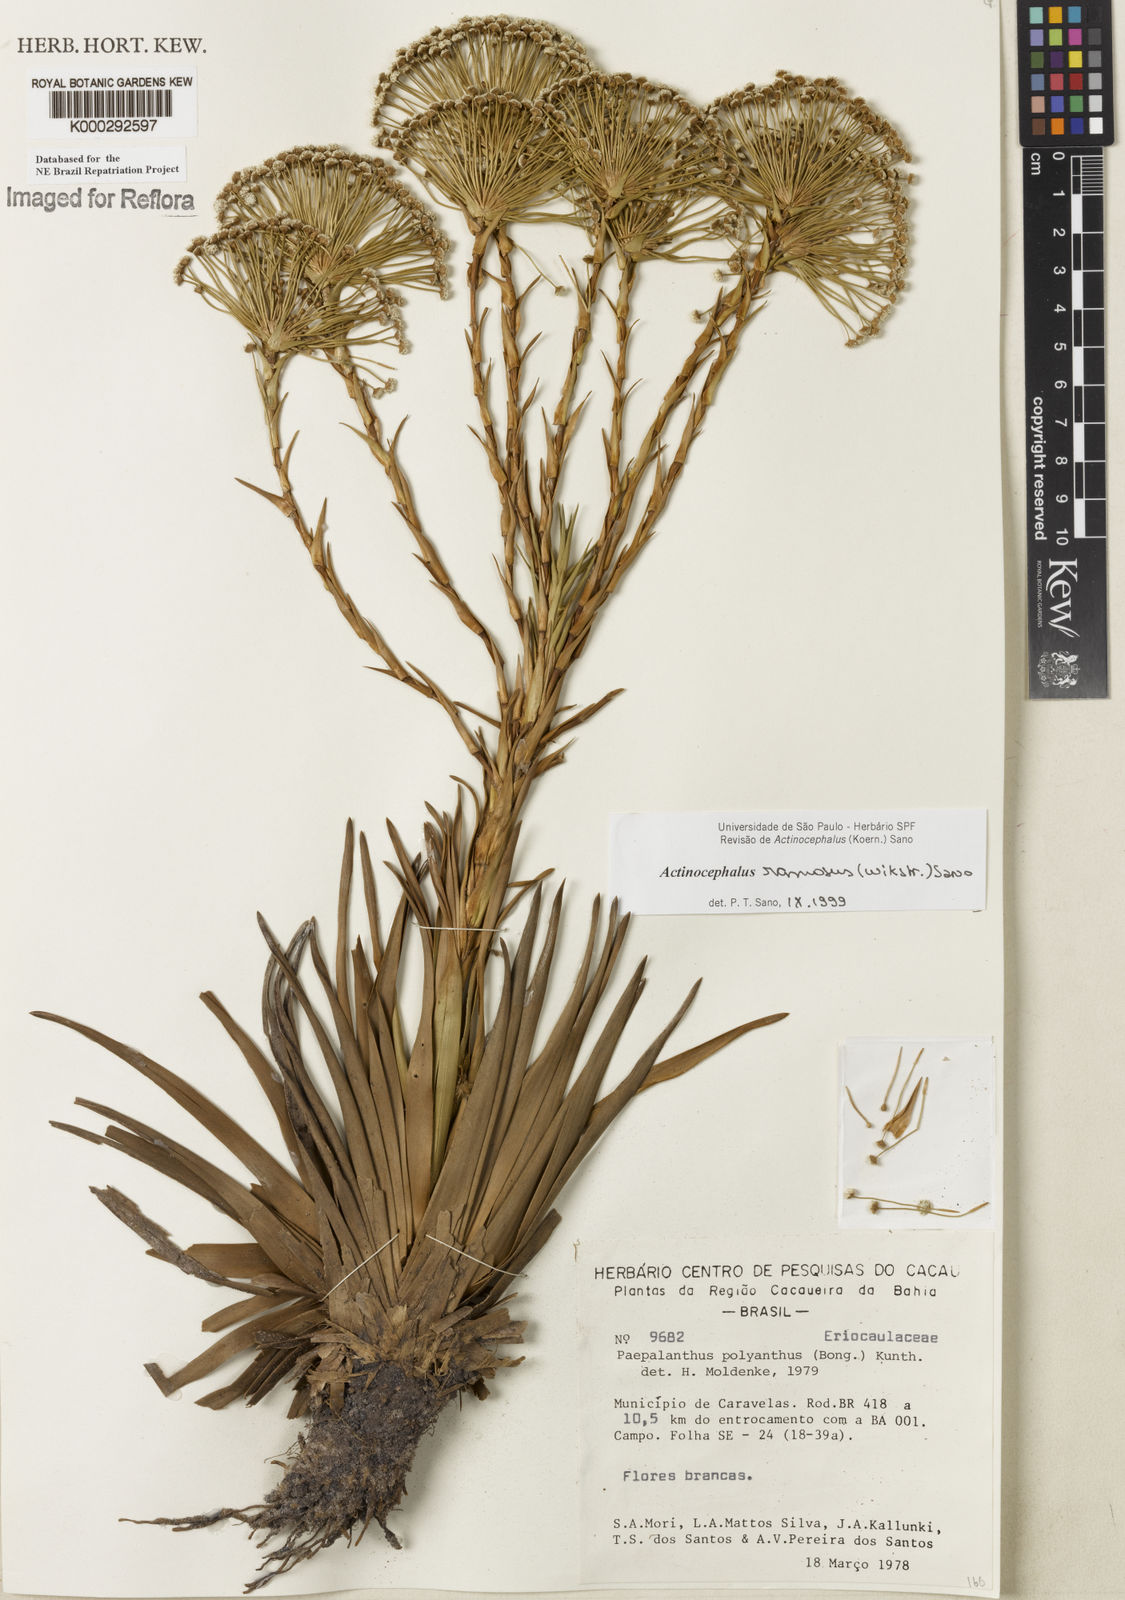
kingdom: Plantae
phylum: Tracheophyta
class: Liliopsida
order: Poales
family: Eriocaulaceae
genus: Paepalanthus
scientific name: Paepalanthus ramosus
